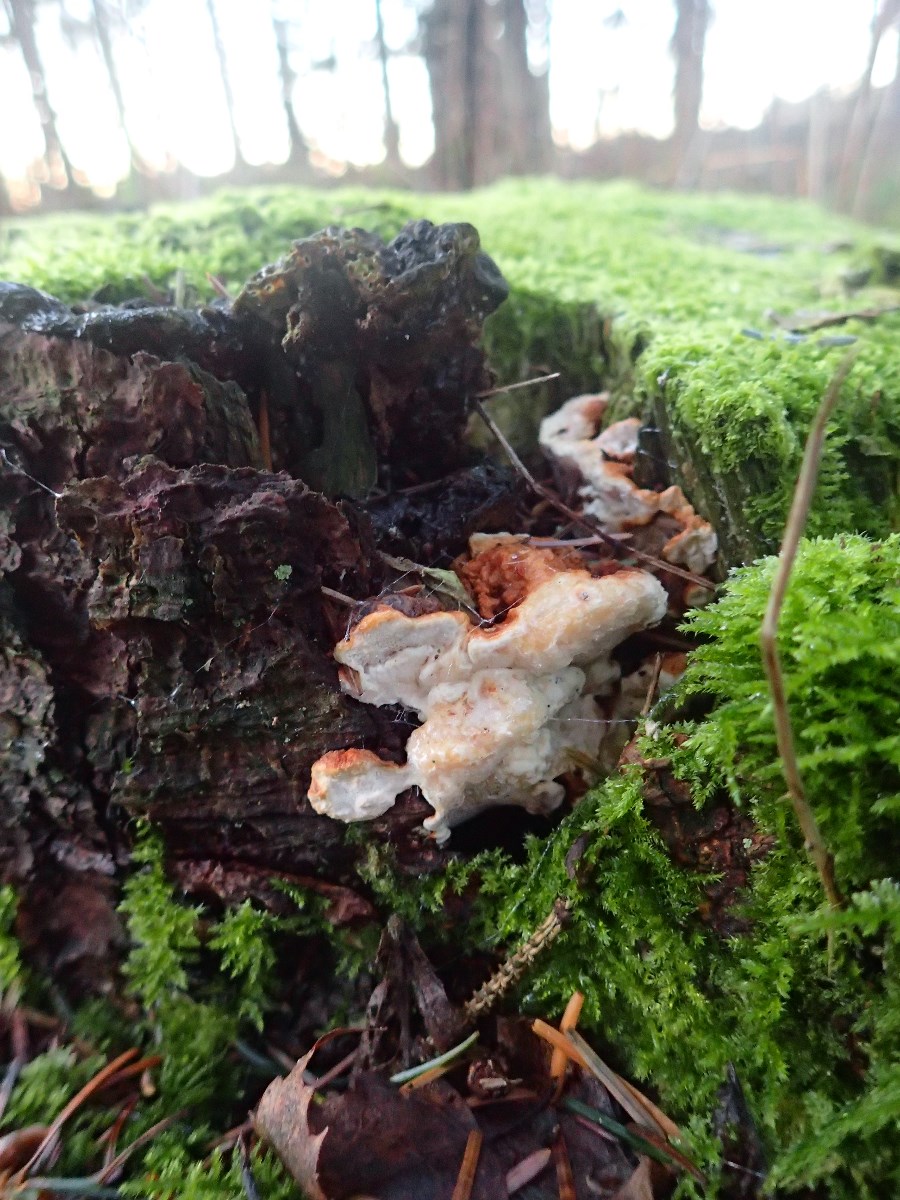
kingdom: Fungi
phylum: Basidiomycota
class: Agaricomycetes
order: Russulales
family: Bondarzewiaceae
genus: Heterobasidion
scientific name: Heterobasidion annosum
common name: almindelig rodfordærver
